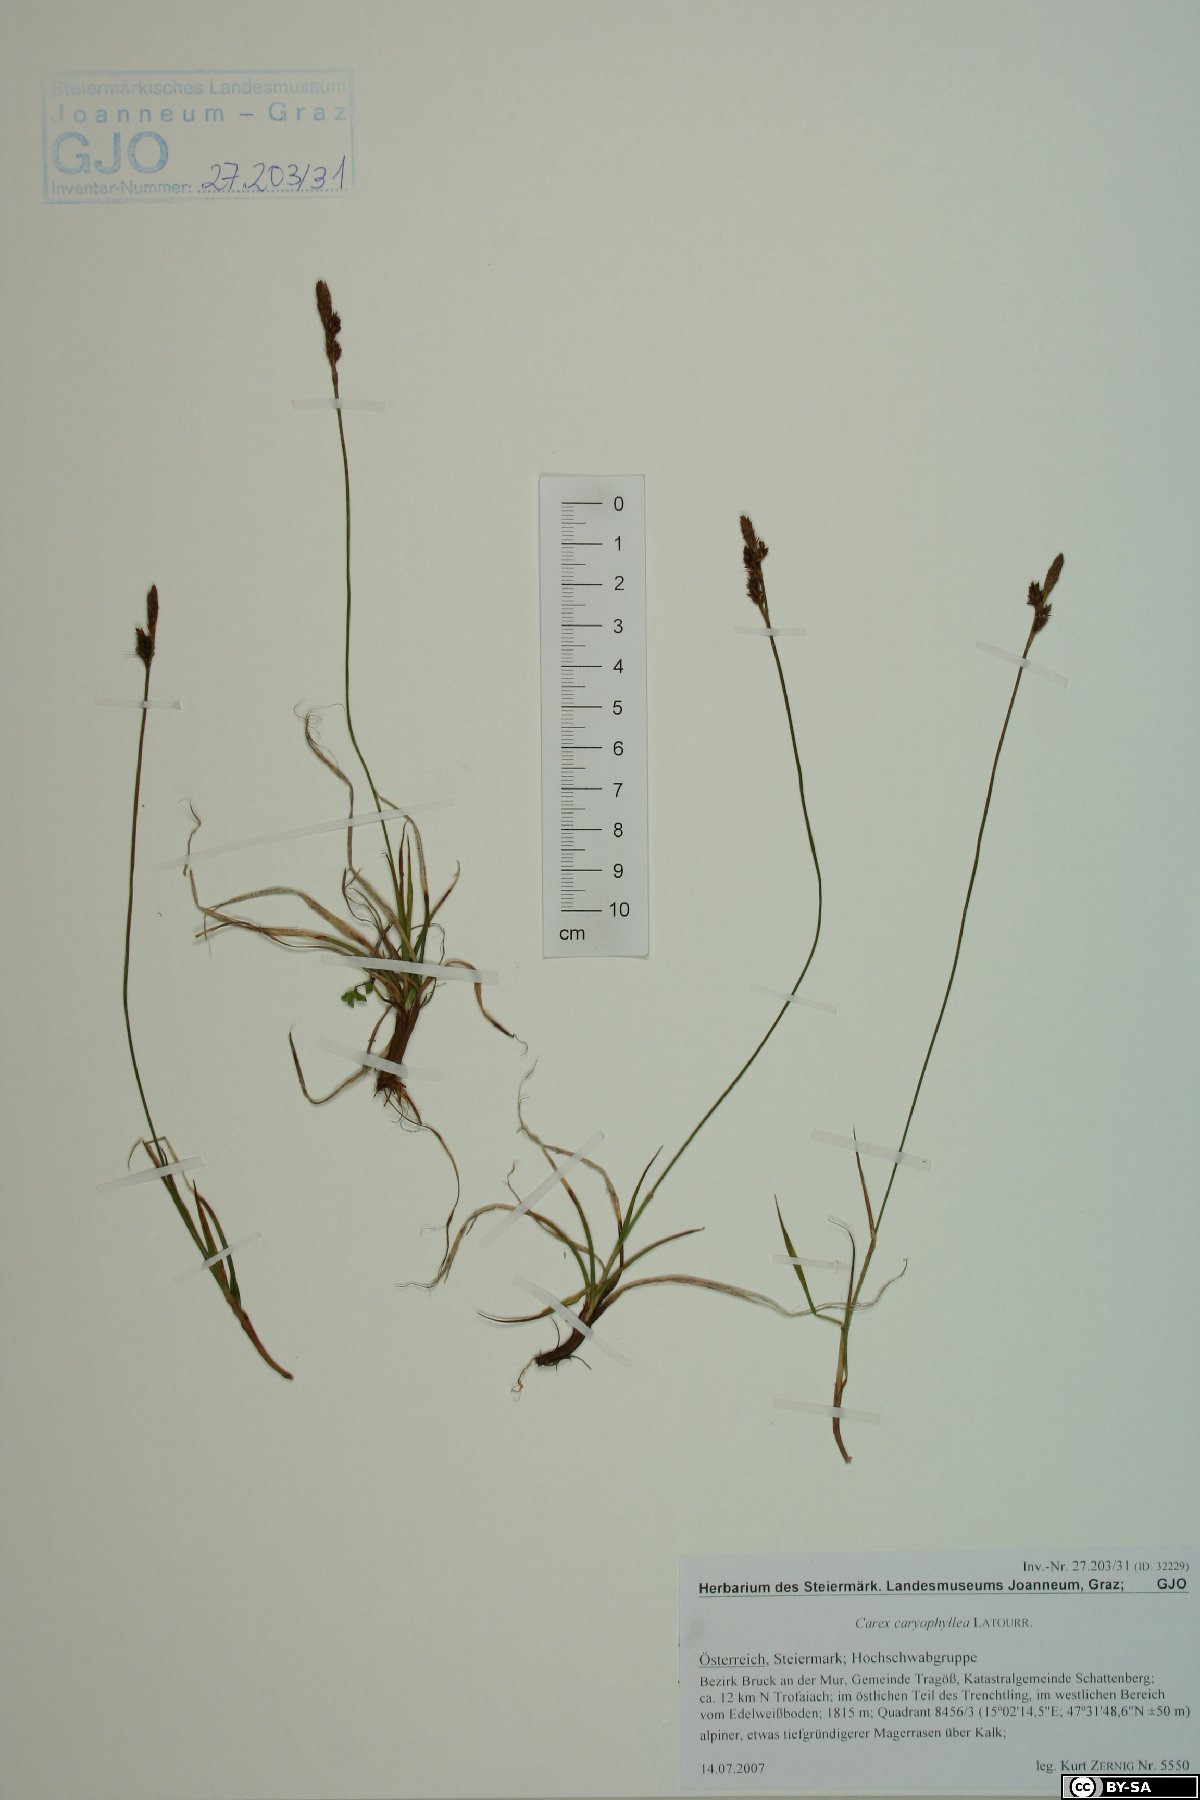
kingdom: Plantae
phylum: Tracheophyta
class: Liliopsida
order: Poales
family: Cyperaceae
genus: Carex
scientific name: Carex caryophyllea
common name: Spring sedge
